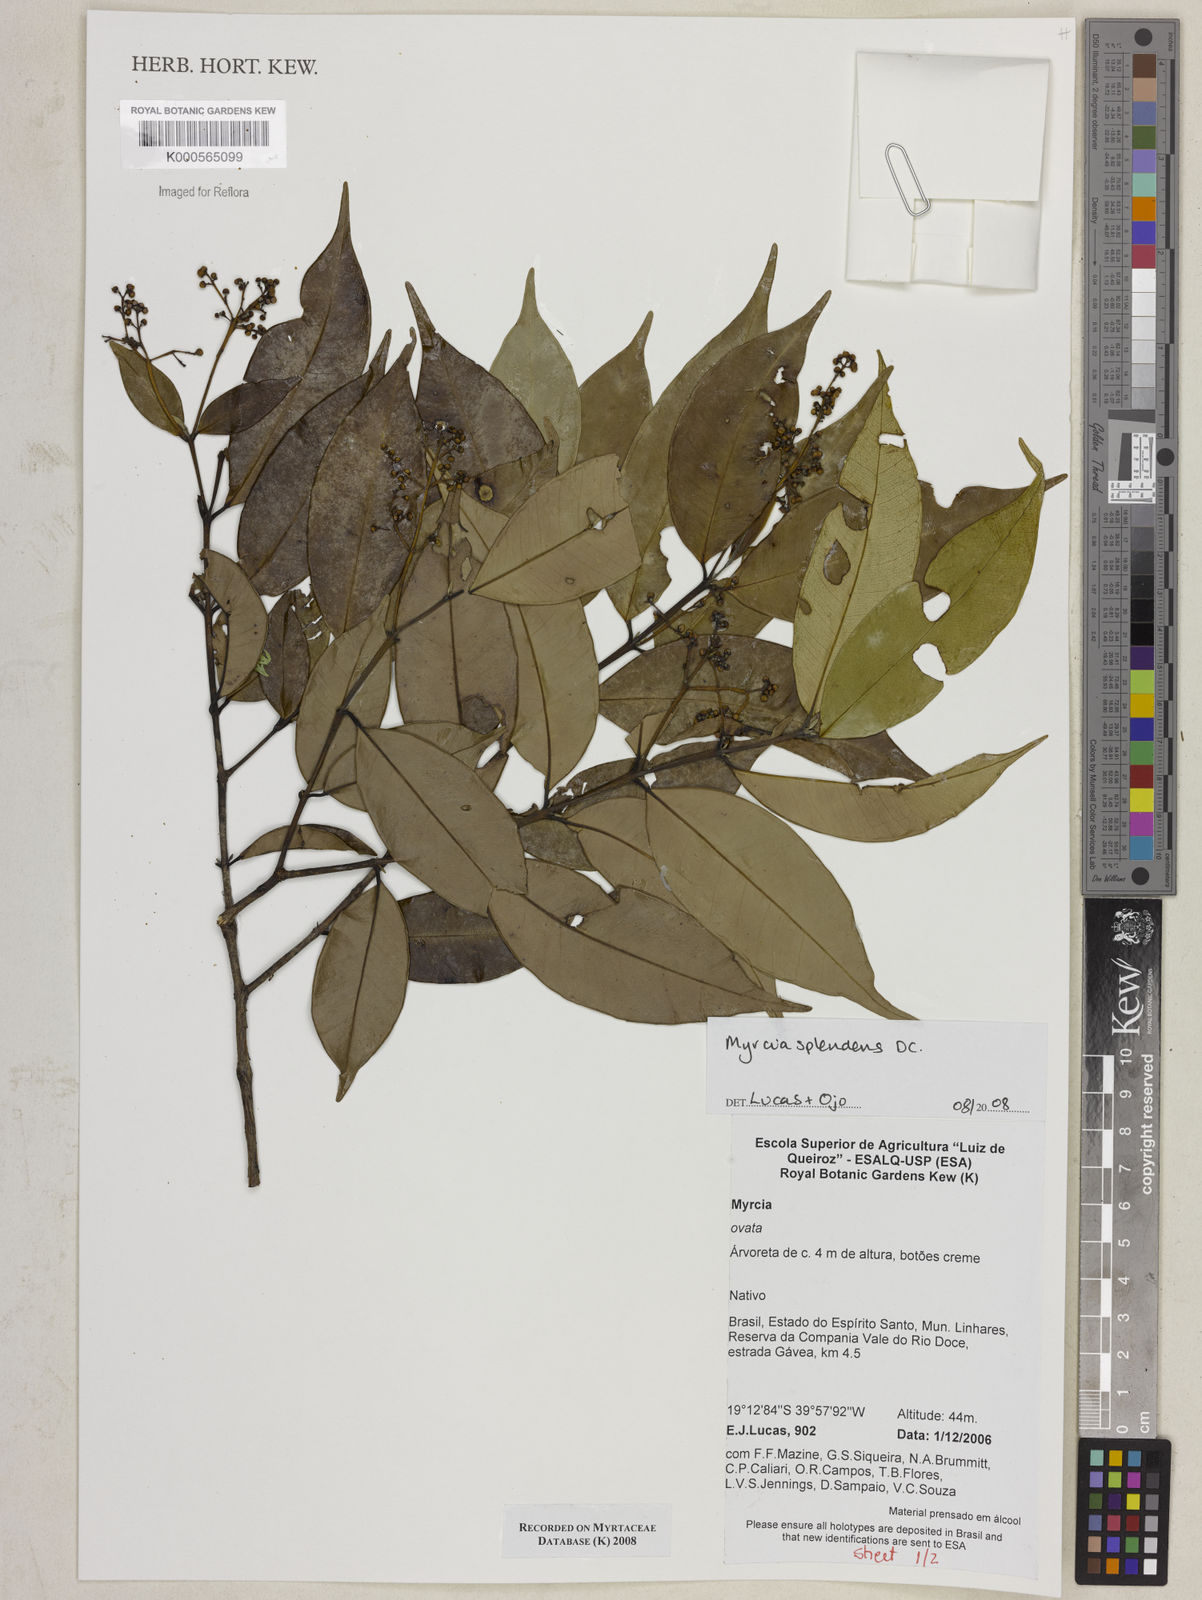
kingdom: Plantae
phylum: Tracheophyta
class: Magnoliopsida
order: Myrtales
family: Myrtaceae
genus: Myrcia
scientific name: Myrcia splendens
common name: Surinam cherry
